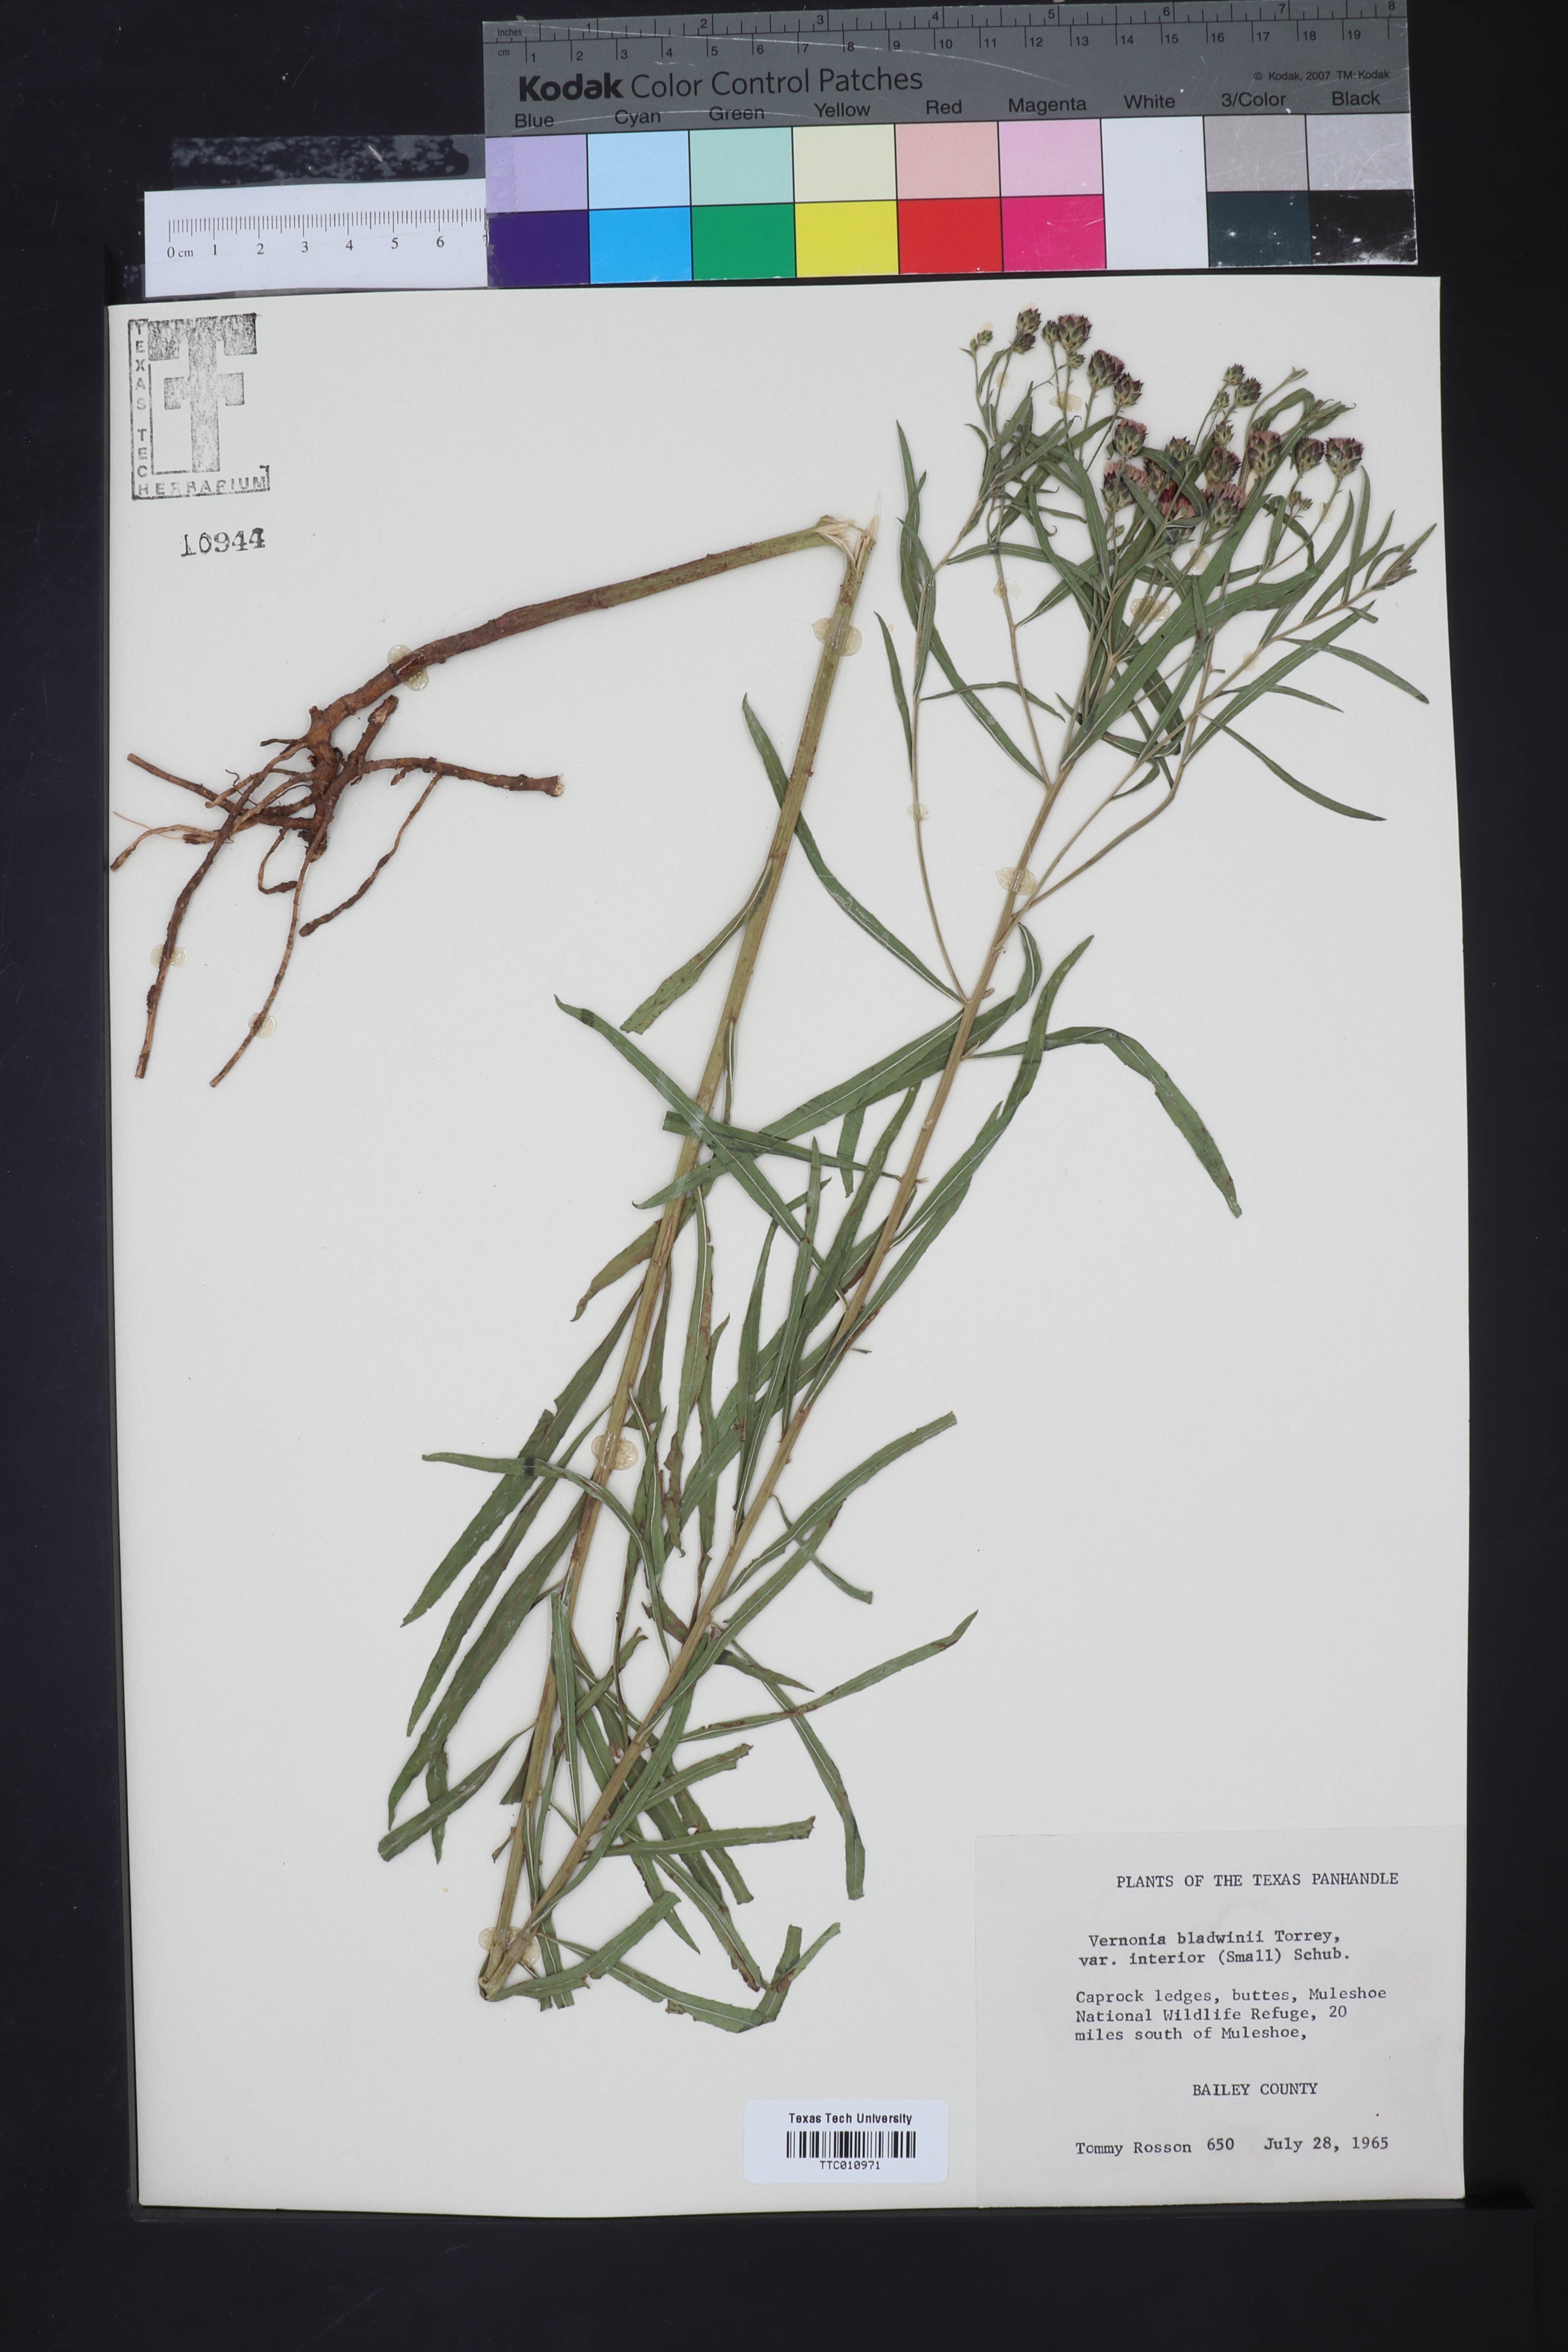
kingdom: Plantae
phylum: Tracheophyta
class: Magnoliopsida
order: Asterales
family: Asteraceae
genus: Vernonia
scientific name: Vernonia baldwinii
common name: Western ironweed
